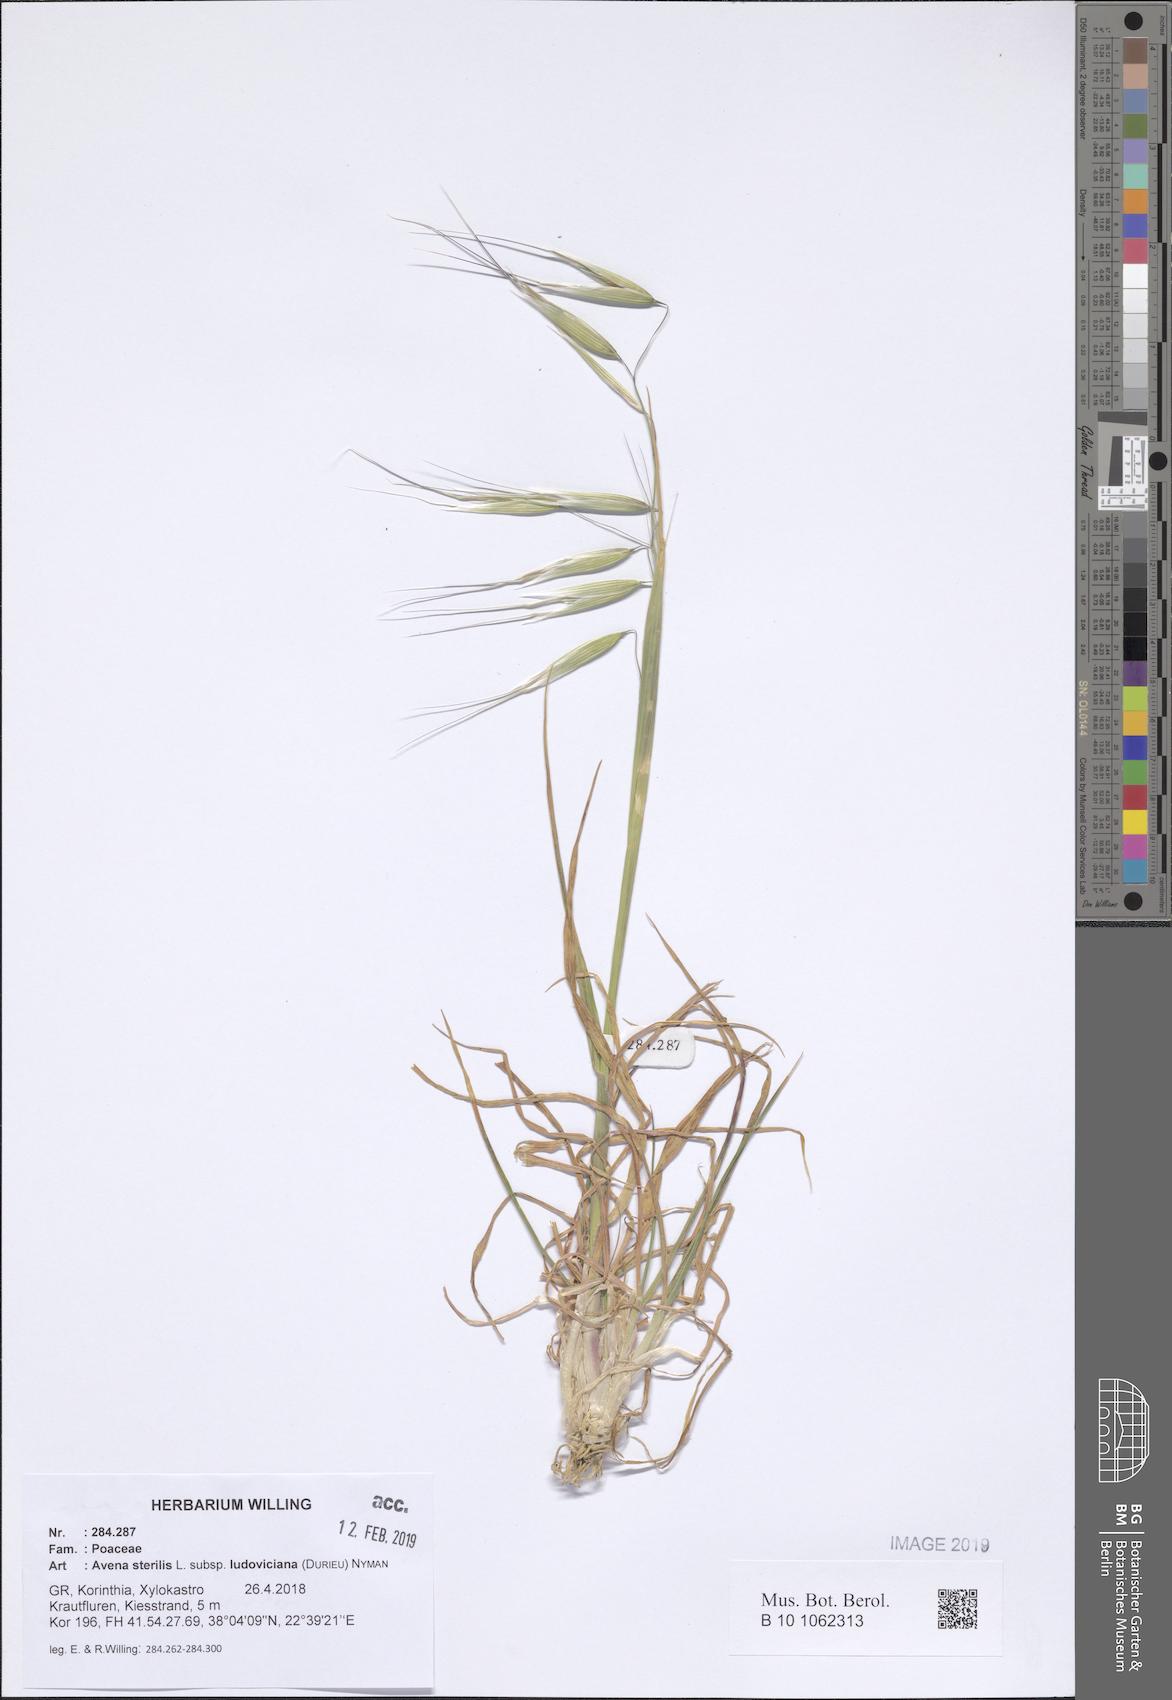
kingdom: Plantae
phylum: Tracheophyta
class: Liliopsida
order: Poales
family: Poaceae
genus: Avena
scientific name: Avena sterilis
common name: Animated oat
